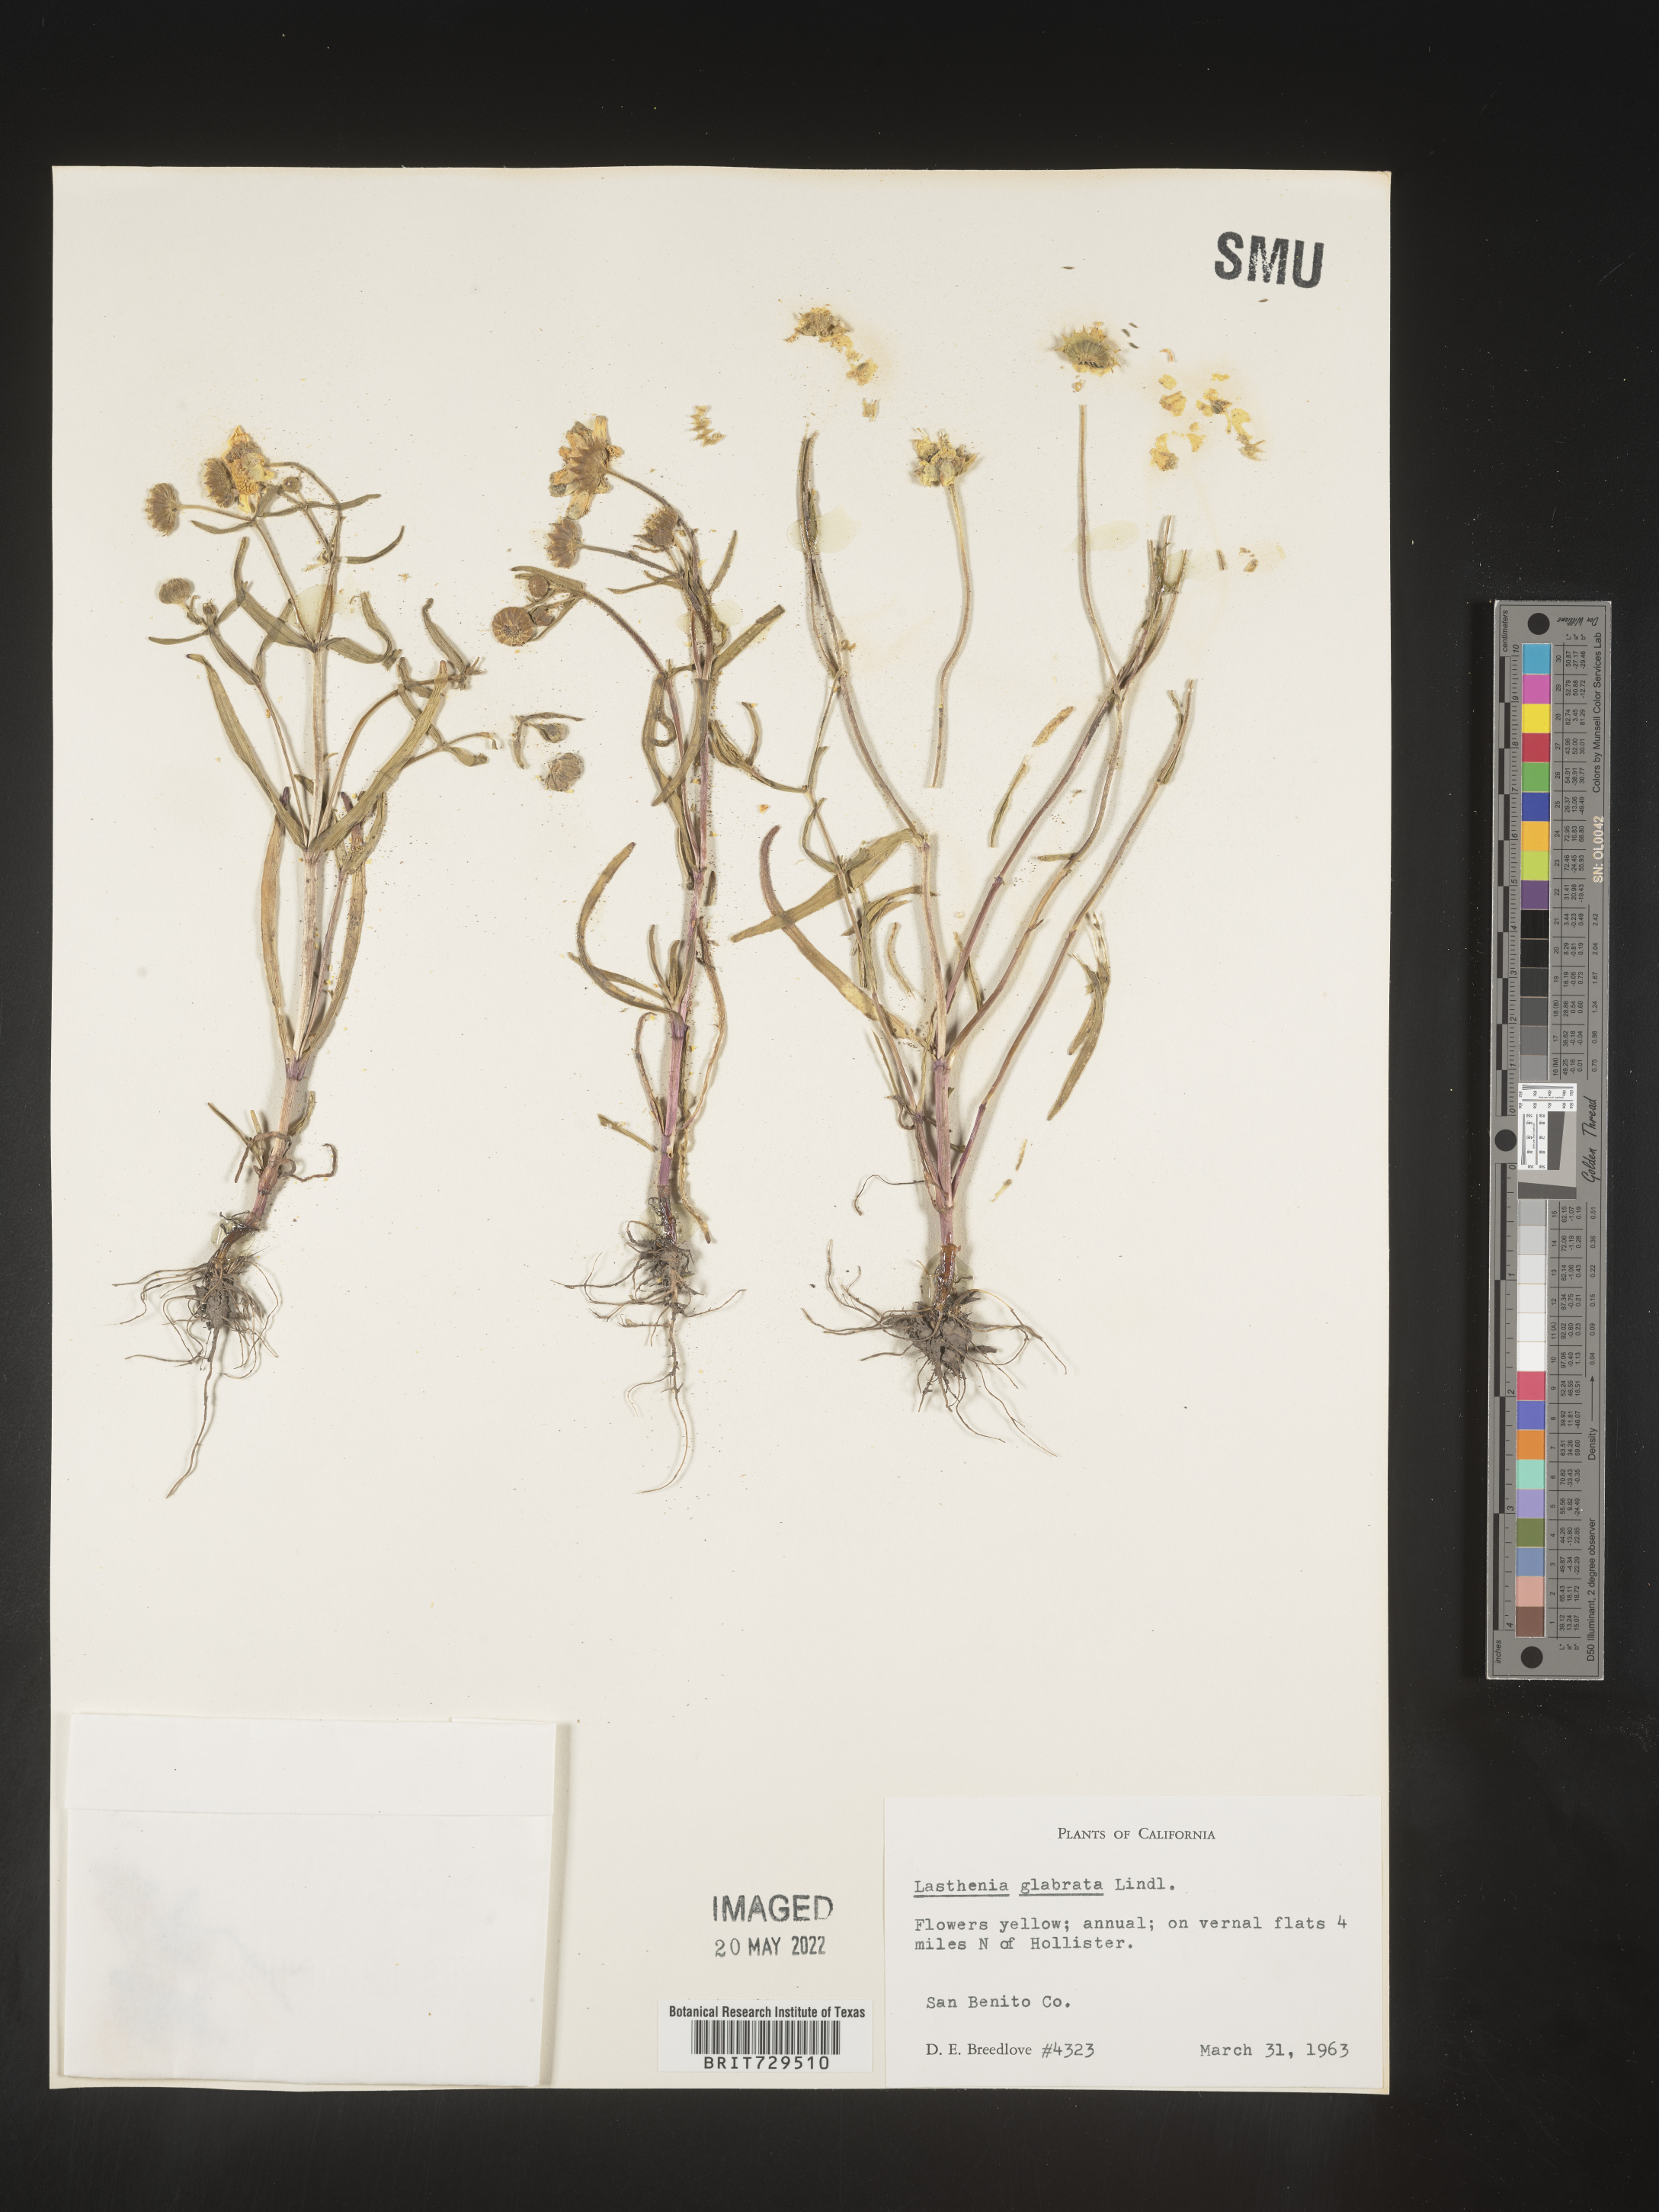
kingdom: Plantae
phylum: Tracheophyta
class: Magnoliopsida
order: Asterales
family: Asteraceae
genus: Lasthenia
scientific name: Lasthenia
